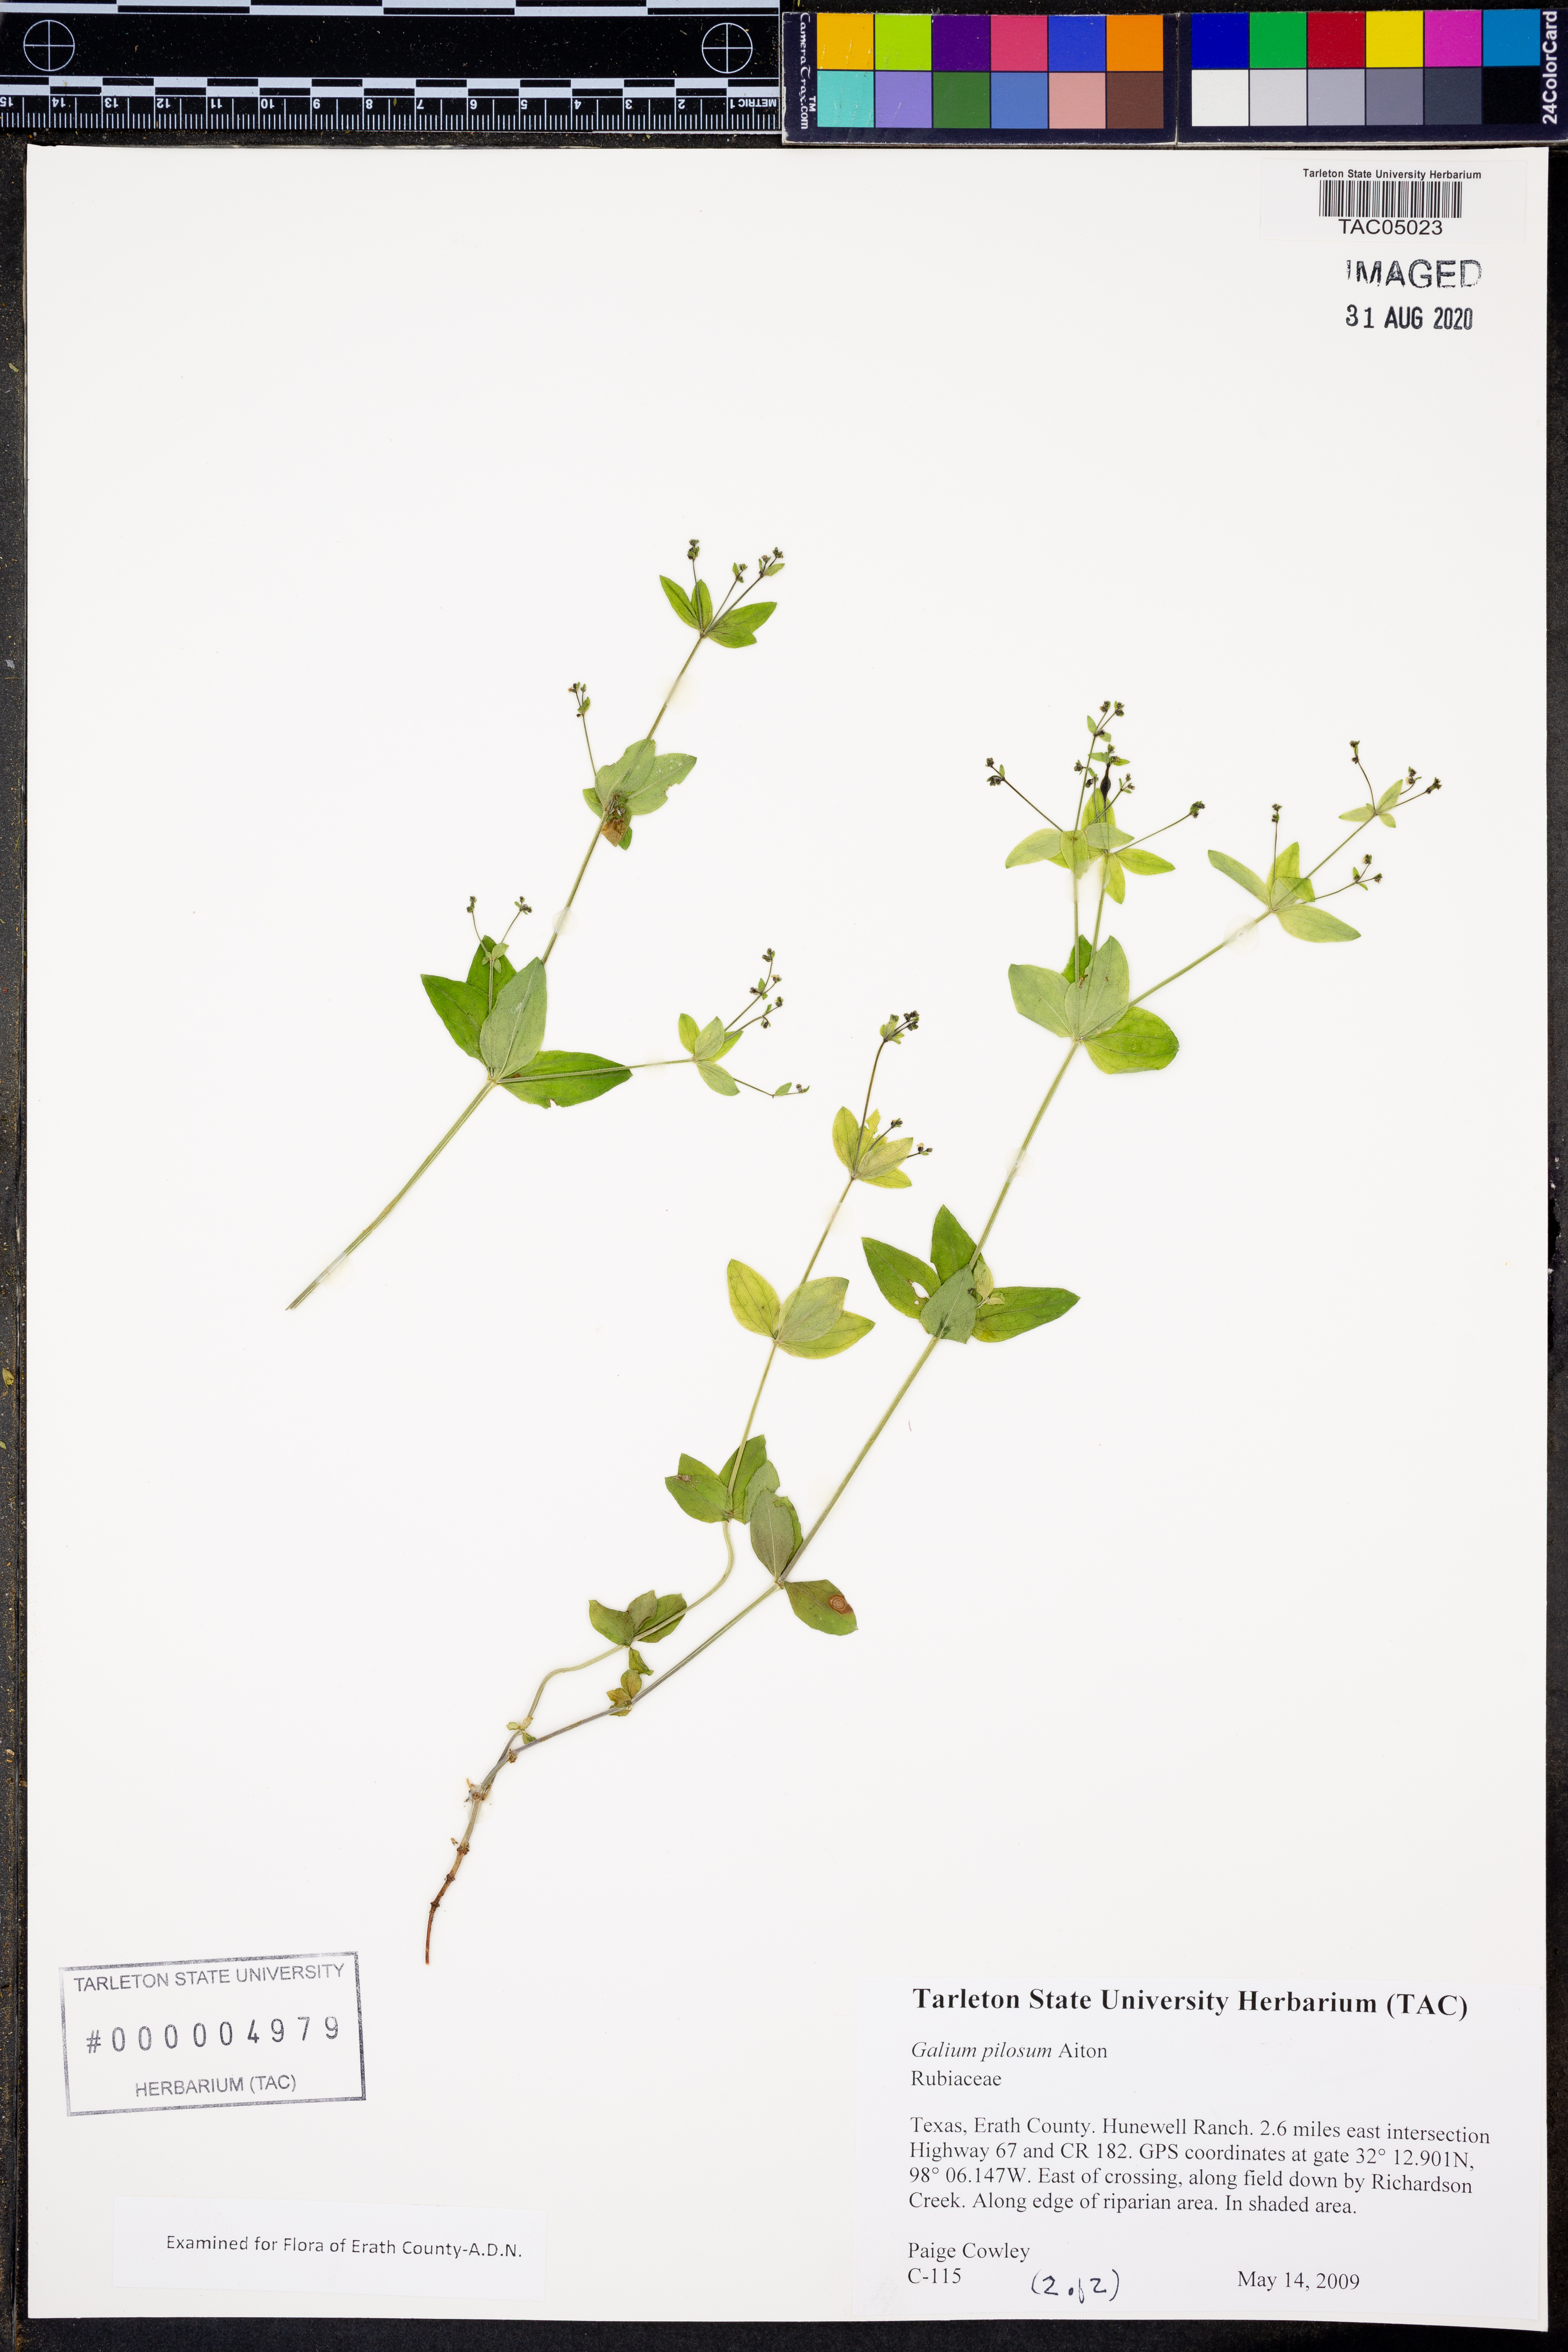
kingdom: Plantae
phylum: Tracheophyta
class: Magnoliopsida
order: Gentianales
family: Rubiaceae
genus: Galium
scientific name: Galium pilosum
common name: Hairy bedstraw
